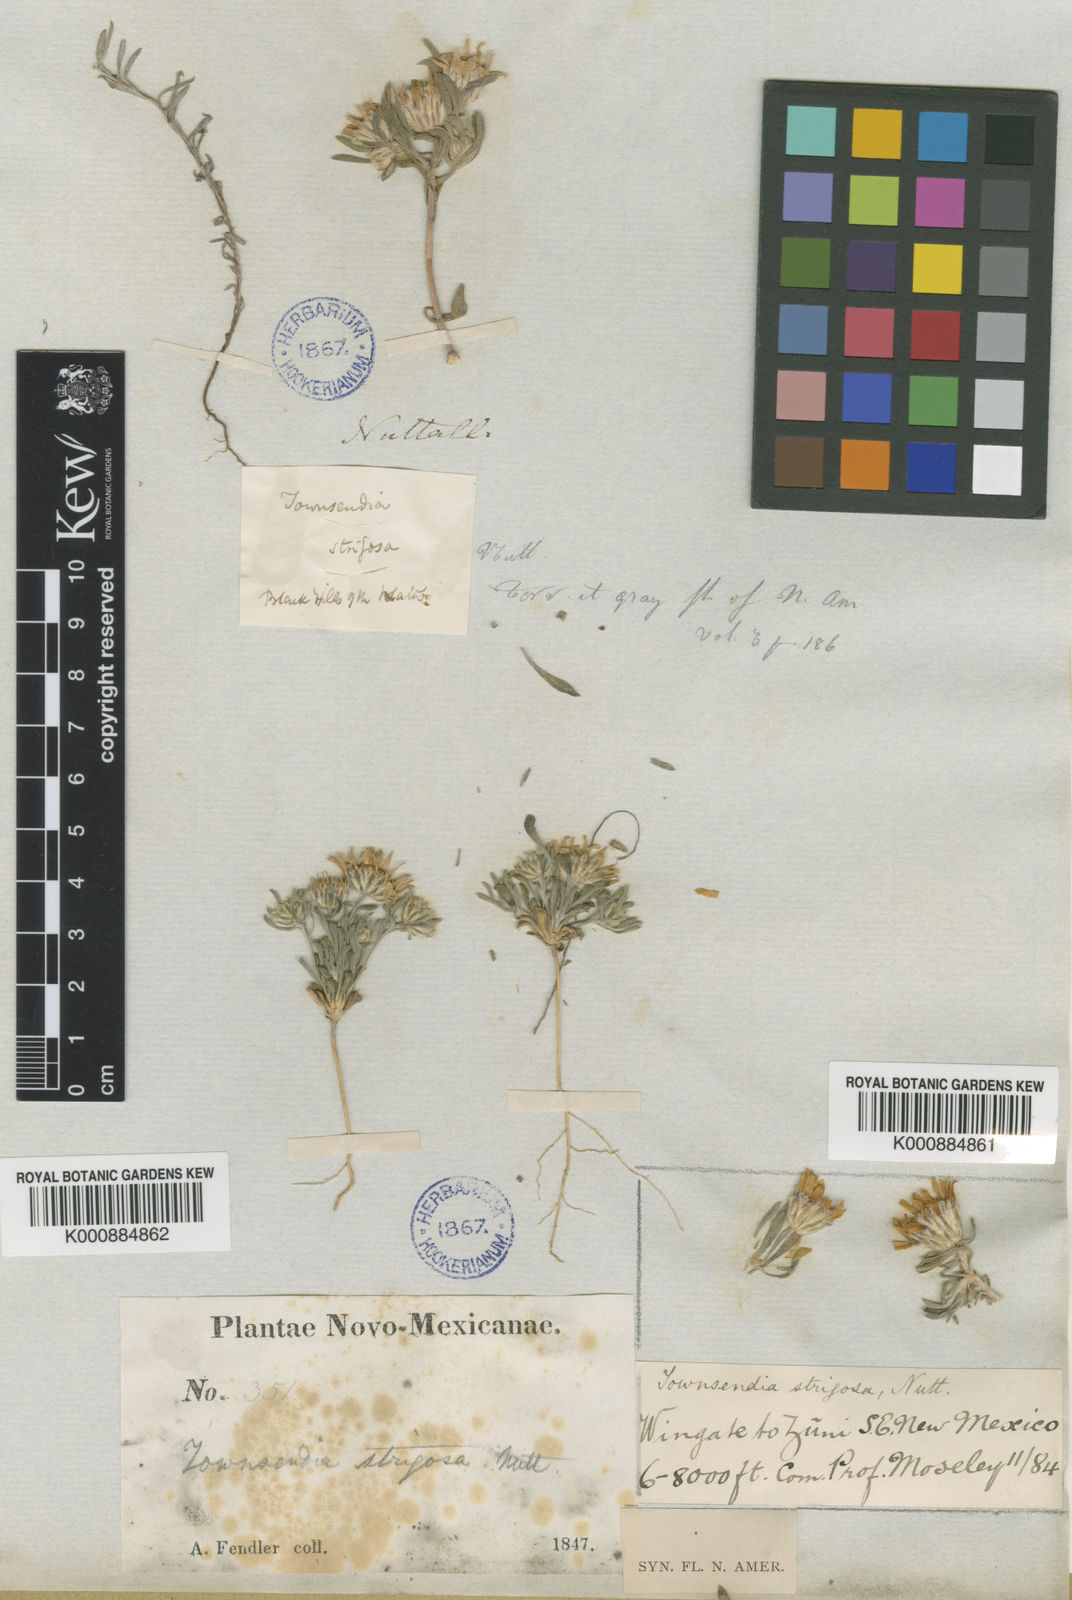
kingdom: Plantae
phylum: Tracheophyta
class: Magnoliopsida
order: Asterales
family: Asteraceae
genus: Townsendia
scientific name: Townsendia strigosa
